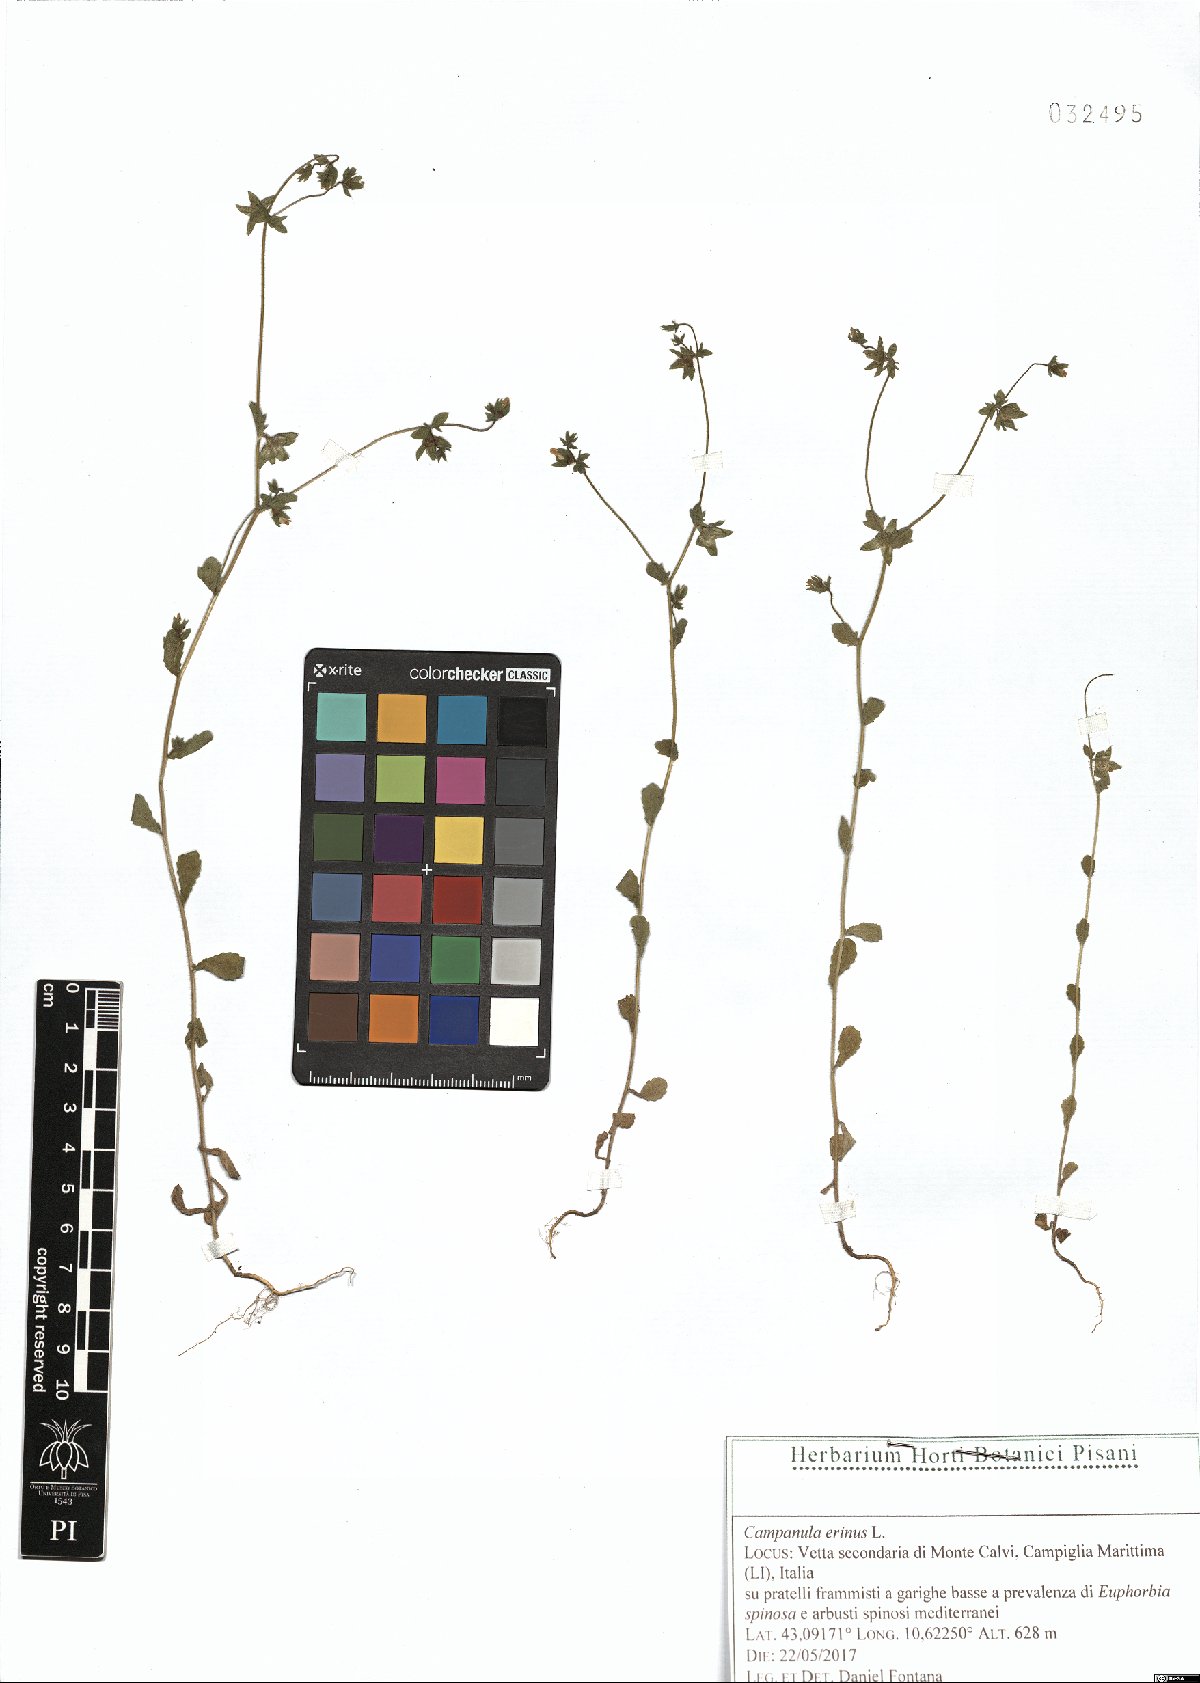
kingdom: Plantae
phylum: Tracheophyta
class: Magnoliopsida
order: Asterales
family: Campanulaceae
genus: Campanula
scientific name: Campanula erinus
